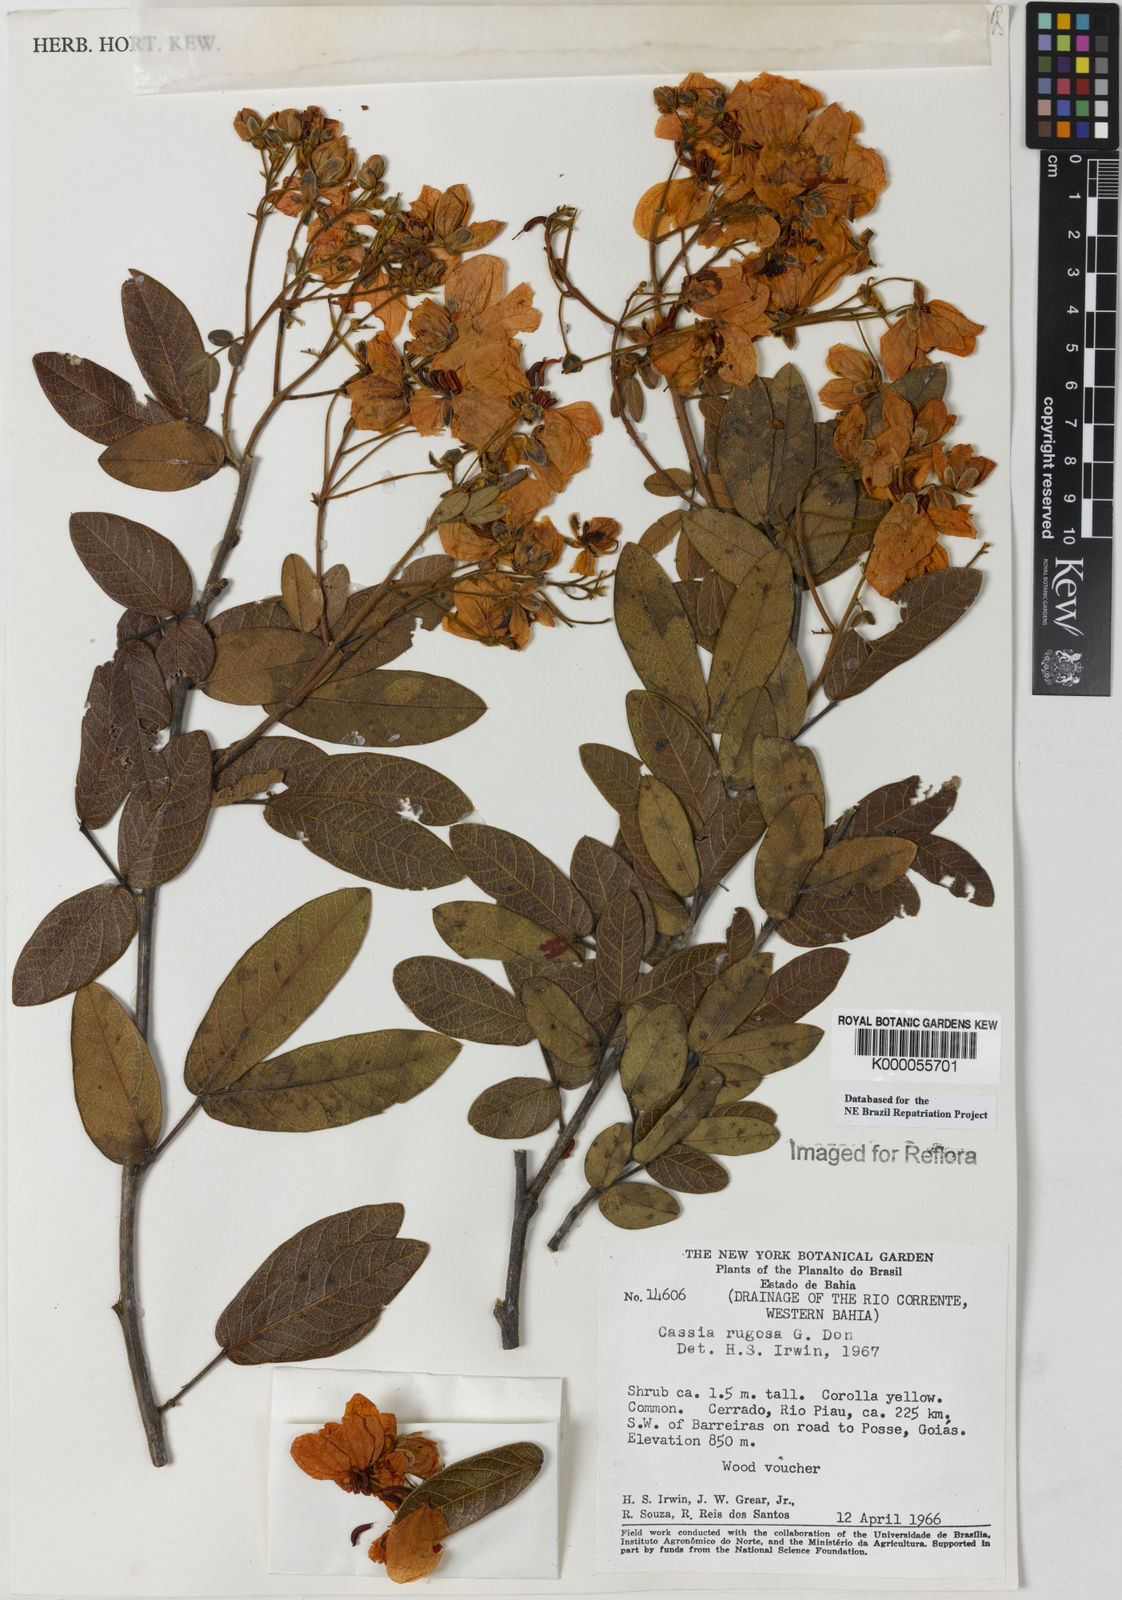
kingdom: Plantae
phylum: Tracheophyta
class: Magnoliopsida
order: Fabales
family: Fabaceae
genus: Senna
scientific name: Senna rugosa
